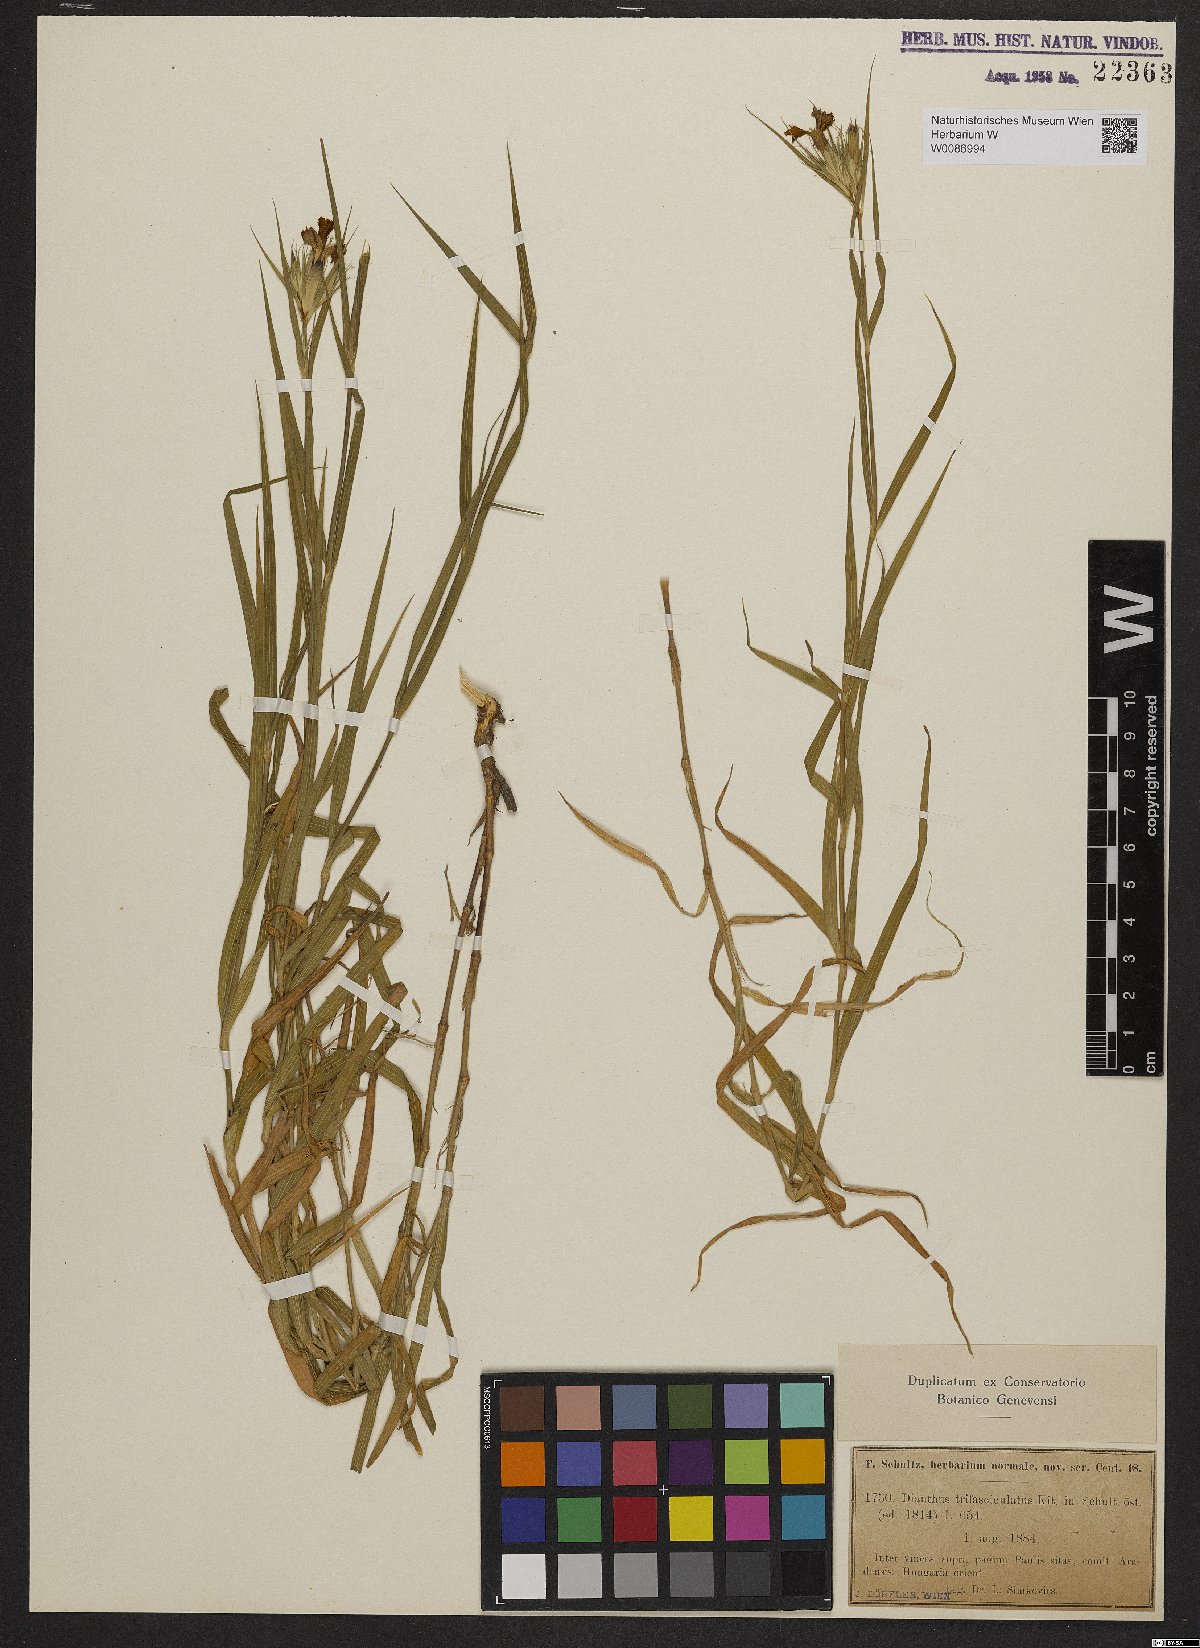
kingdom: Plantae
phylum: Tracheophyta
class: Magnoliopsida
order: Caryophyllales
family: Caryophyllaceae
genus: Dianthus
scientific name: Dianthus trifasciculatus
